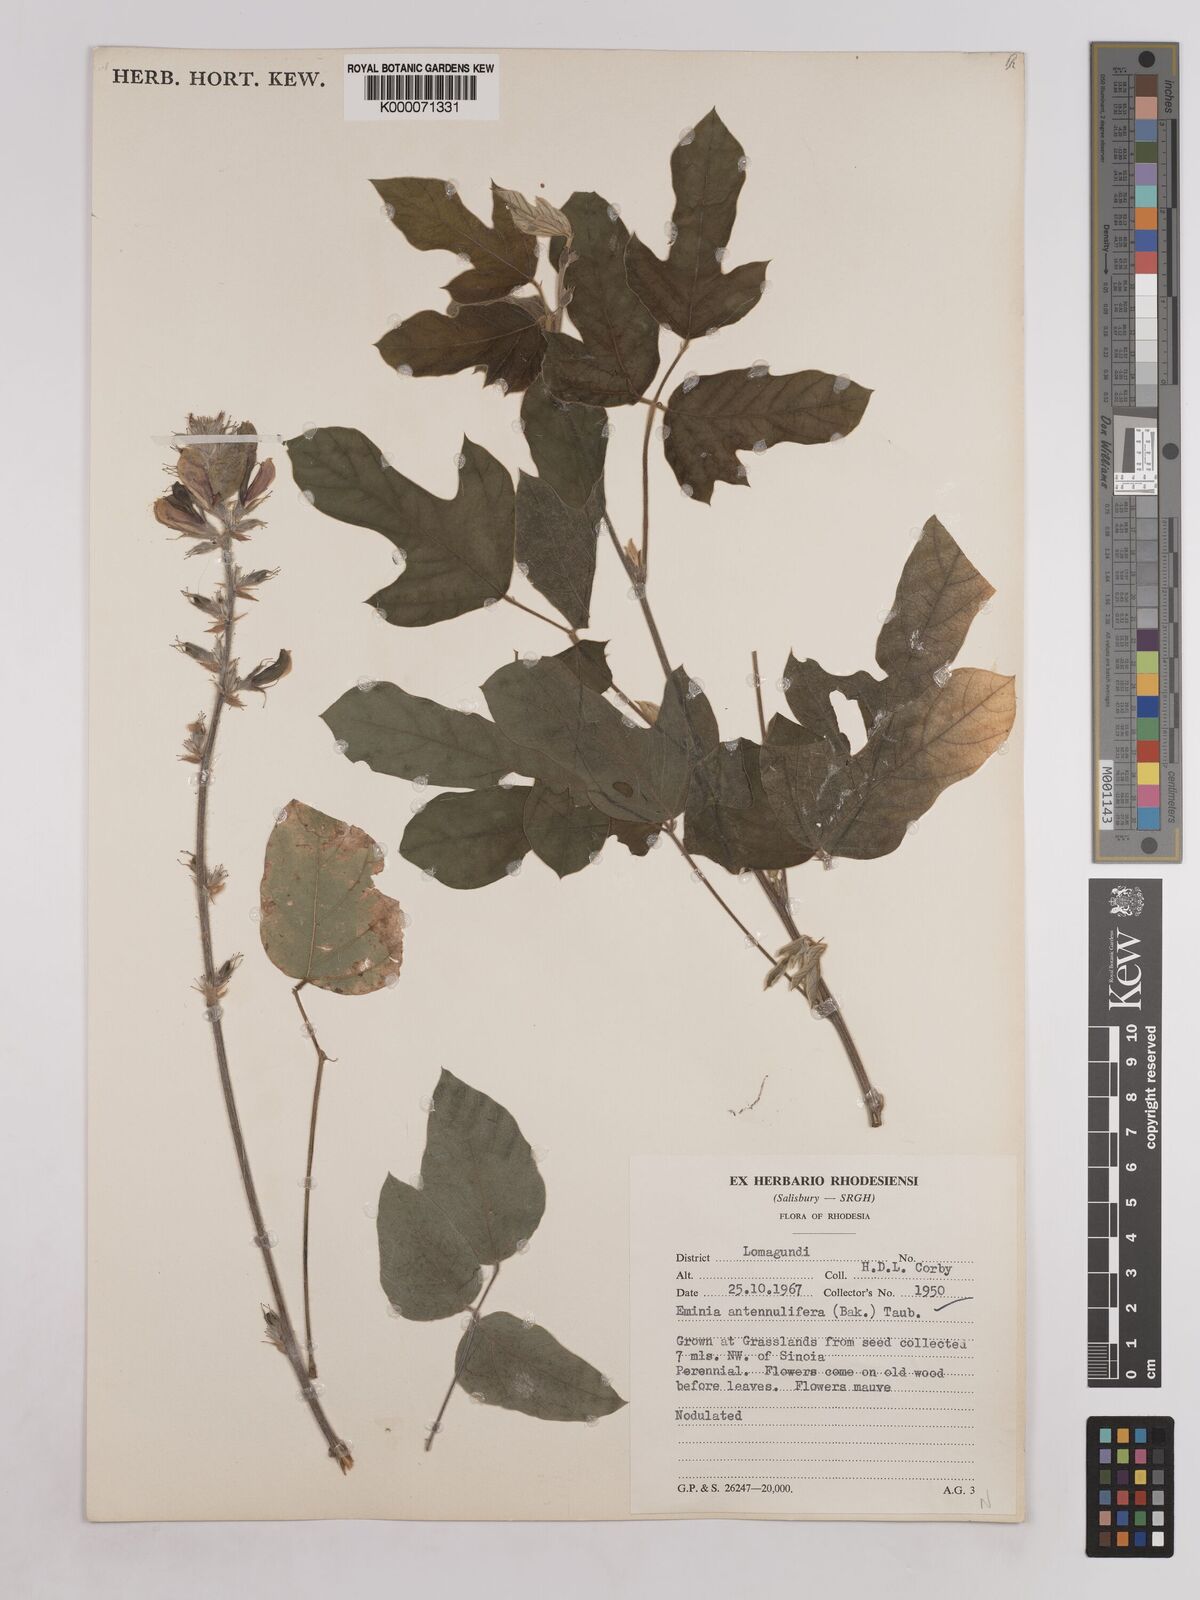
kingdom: Plantae
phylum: Tracheophyta
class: Magnoliopsida
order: Fabales
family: Fabaceae
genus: Eminia
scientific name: Eminia antennulifera
